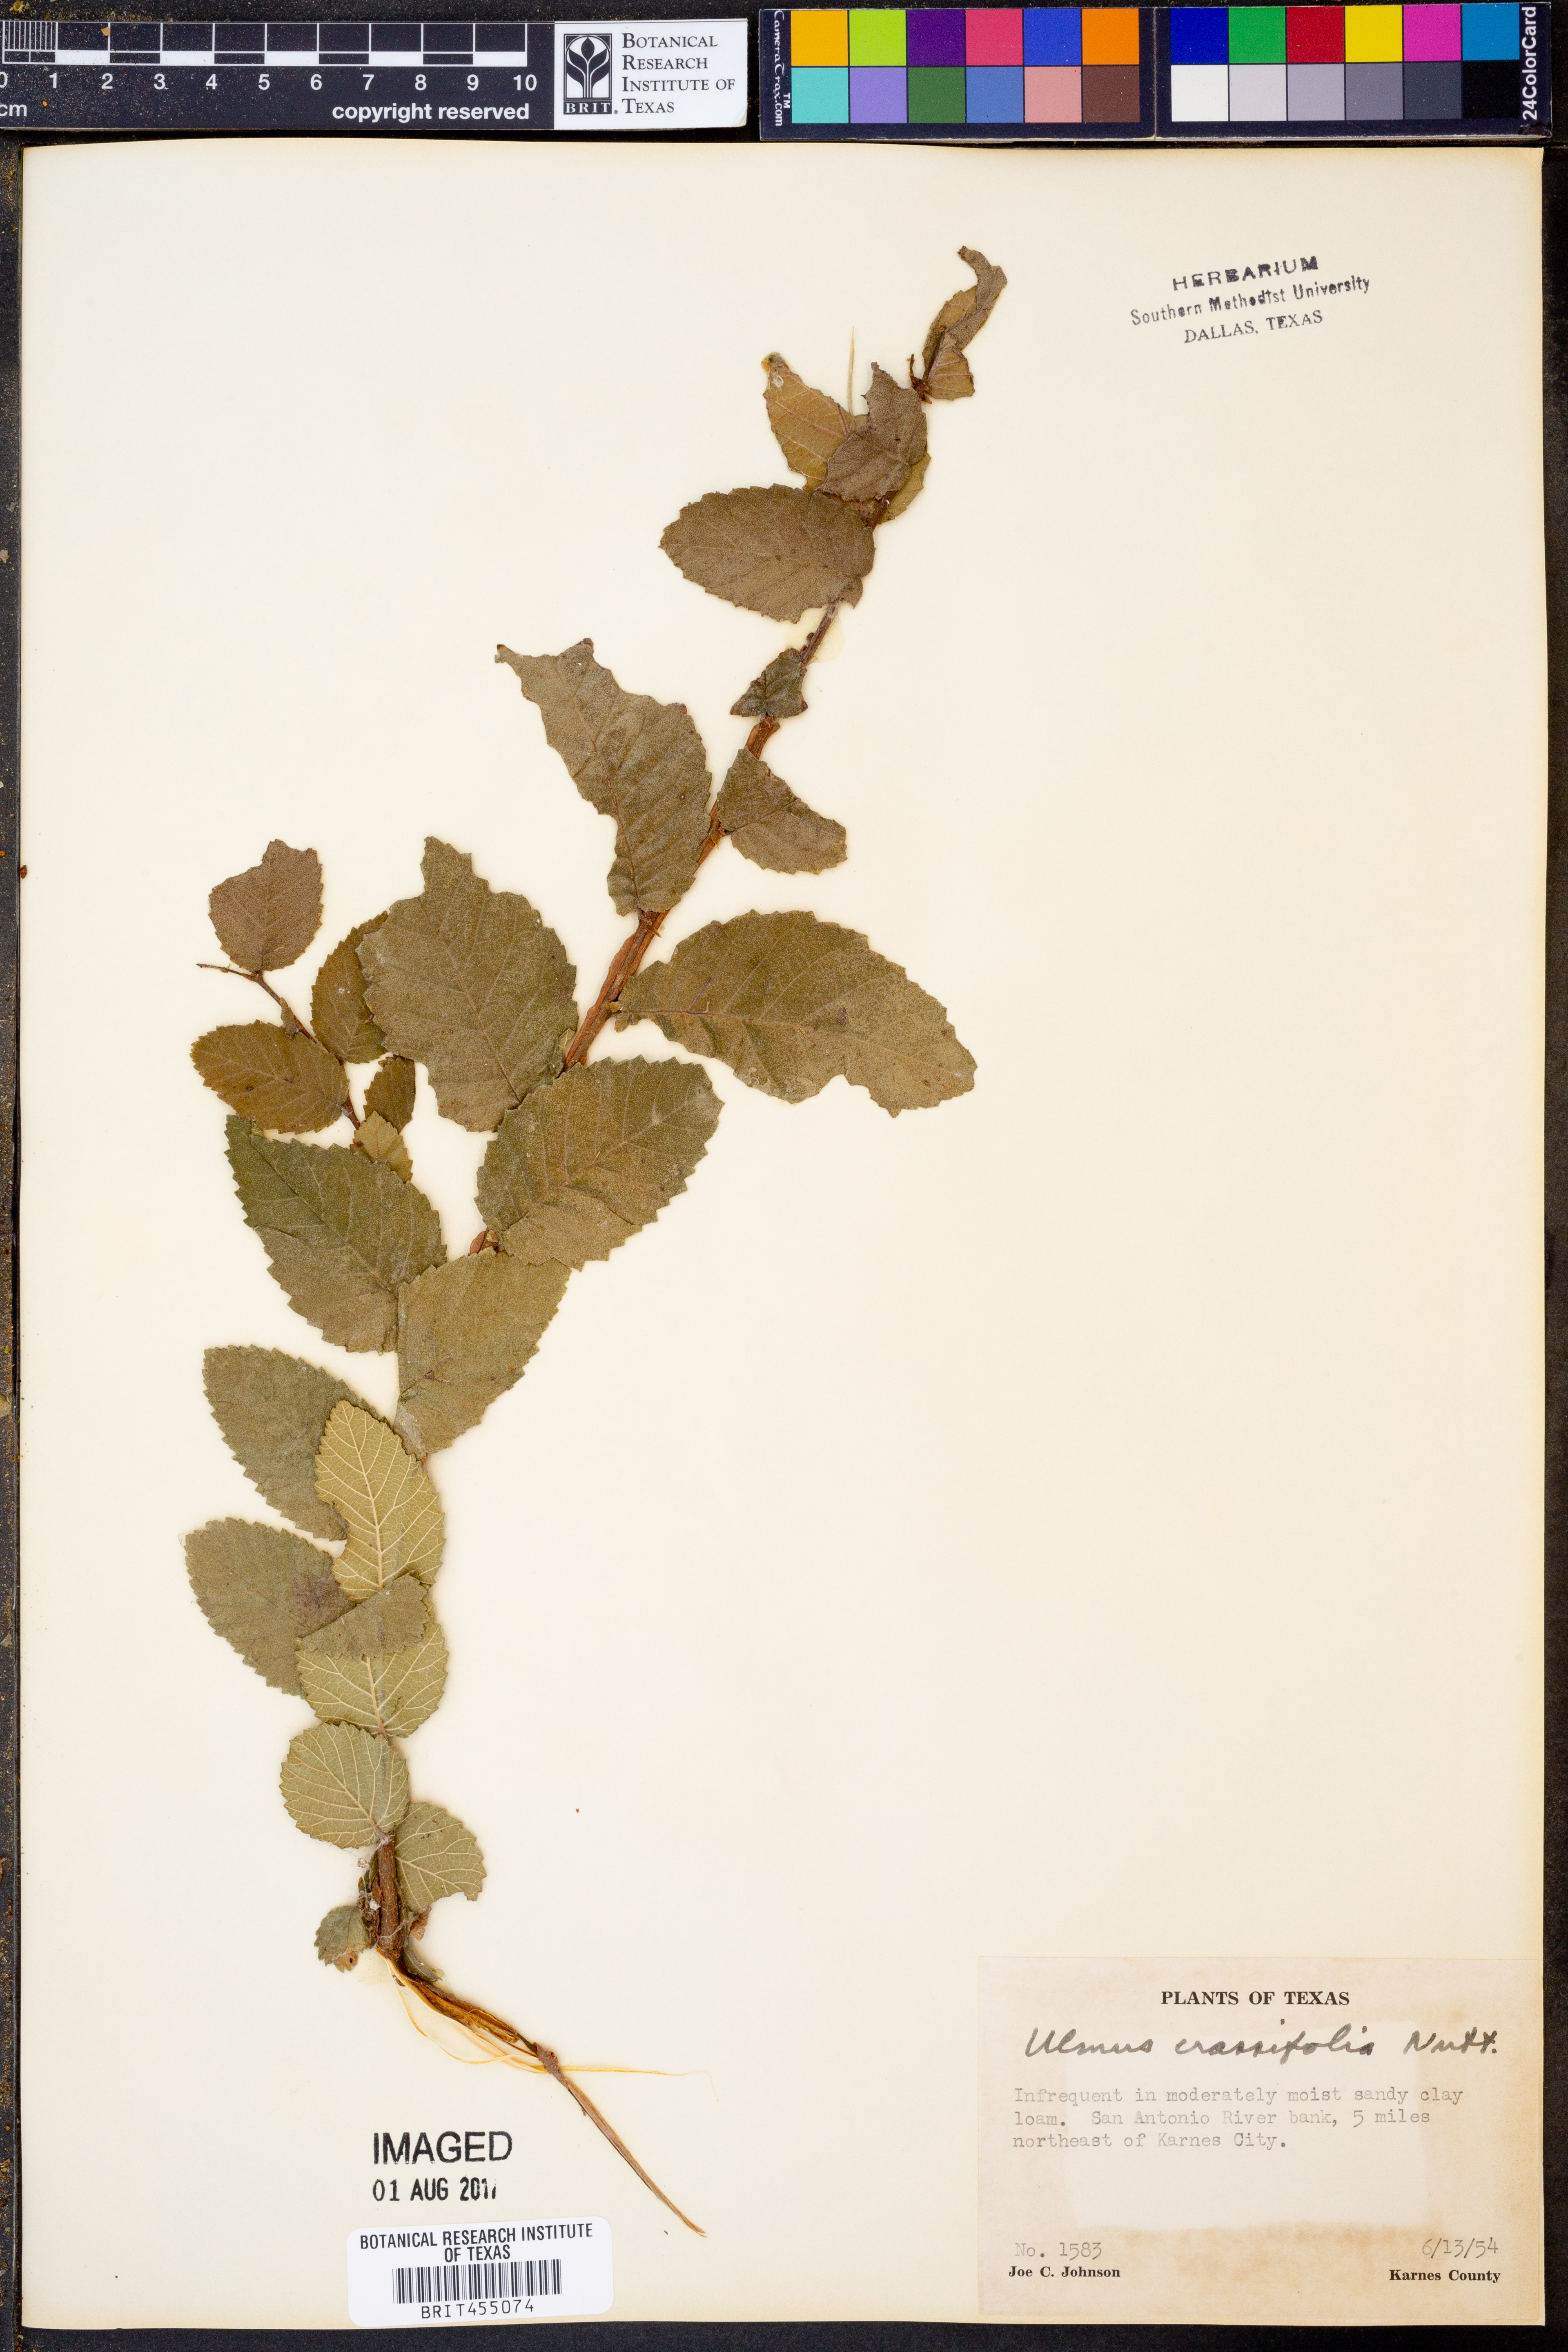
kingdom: Plantae
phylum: Tracheophyta
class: Magnoliopsida
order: Rosales
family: Ulmaceae
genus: Ulmus
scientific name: Ulmus crassifolia
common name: Basket elm
